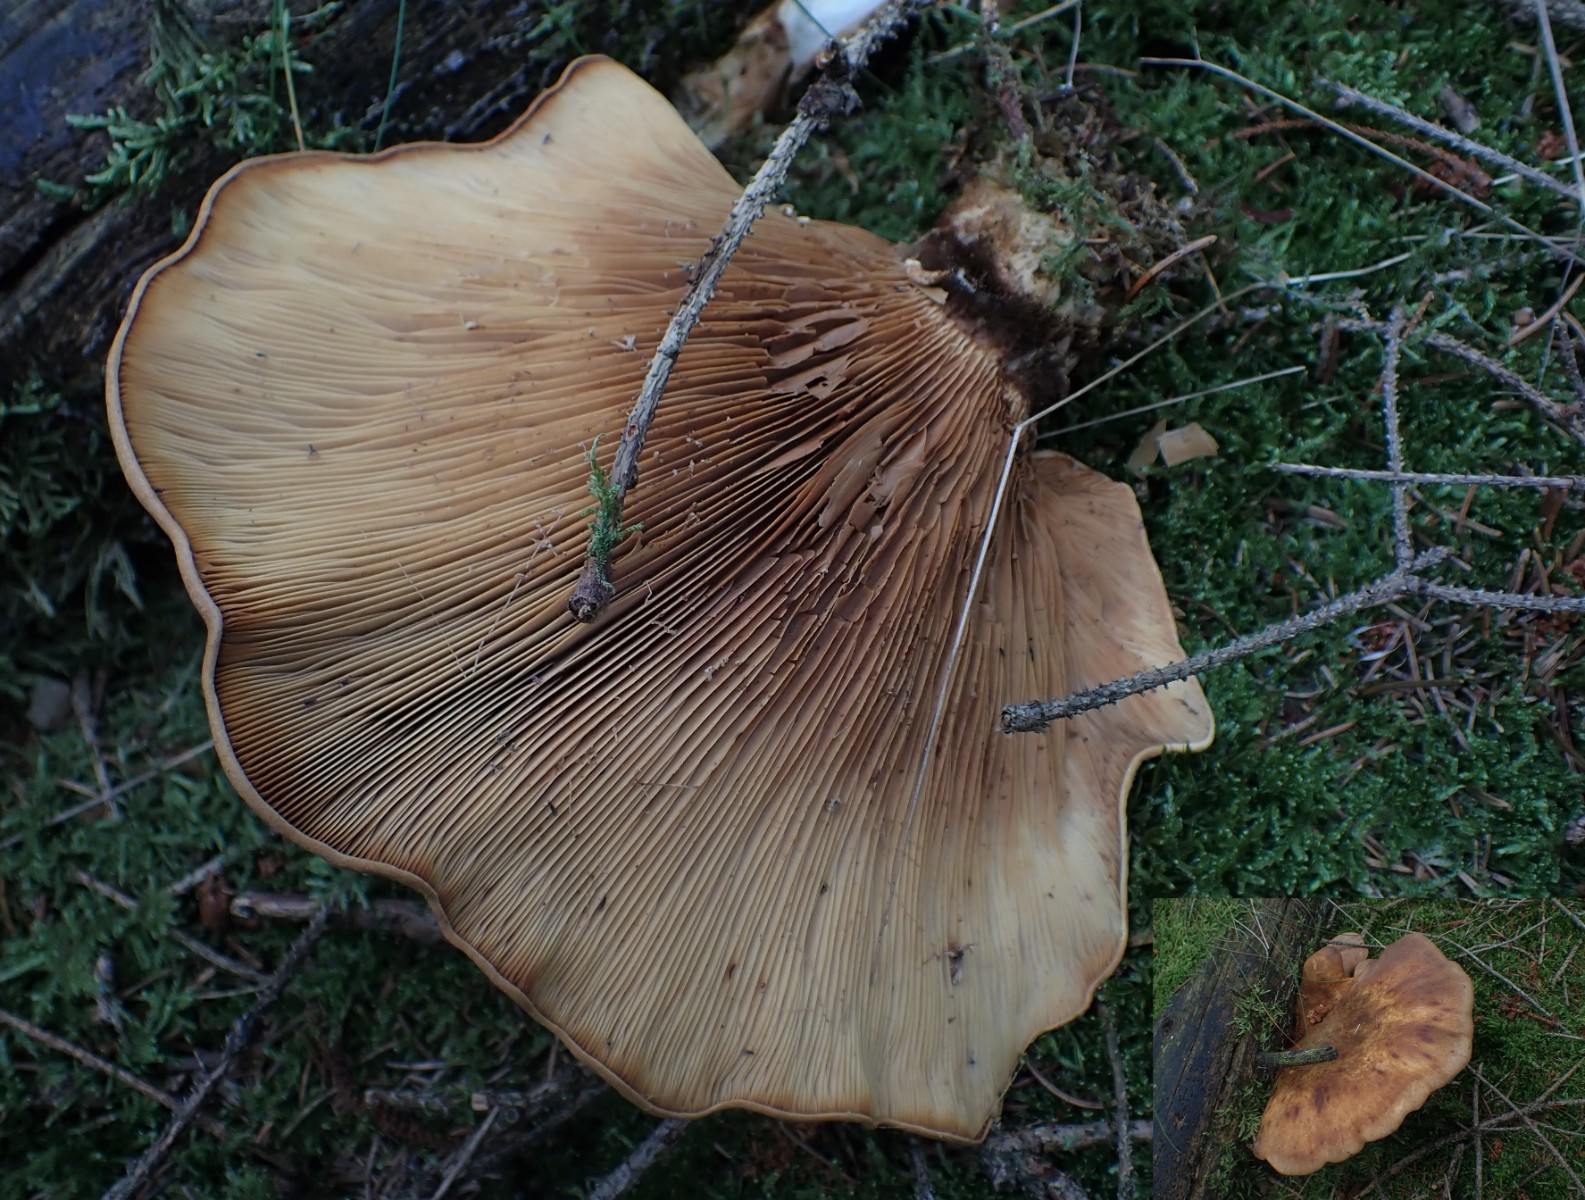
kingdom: Fungi
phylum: Basidiomycota
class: Agaricomycetes
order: Boletales
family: Tapinellaceae
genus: Tapinella
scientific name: Tapinella atrotomentosa
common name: sortfiltet viftesvamp
